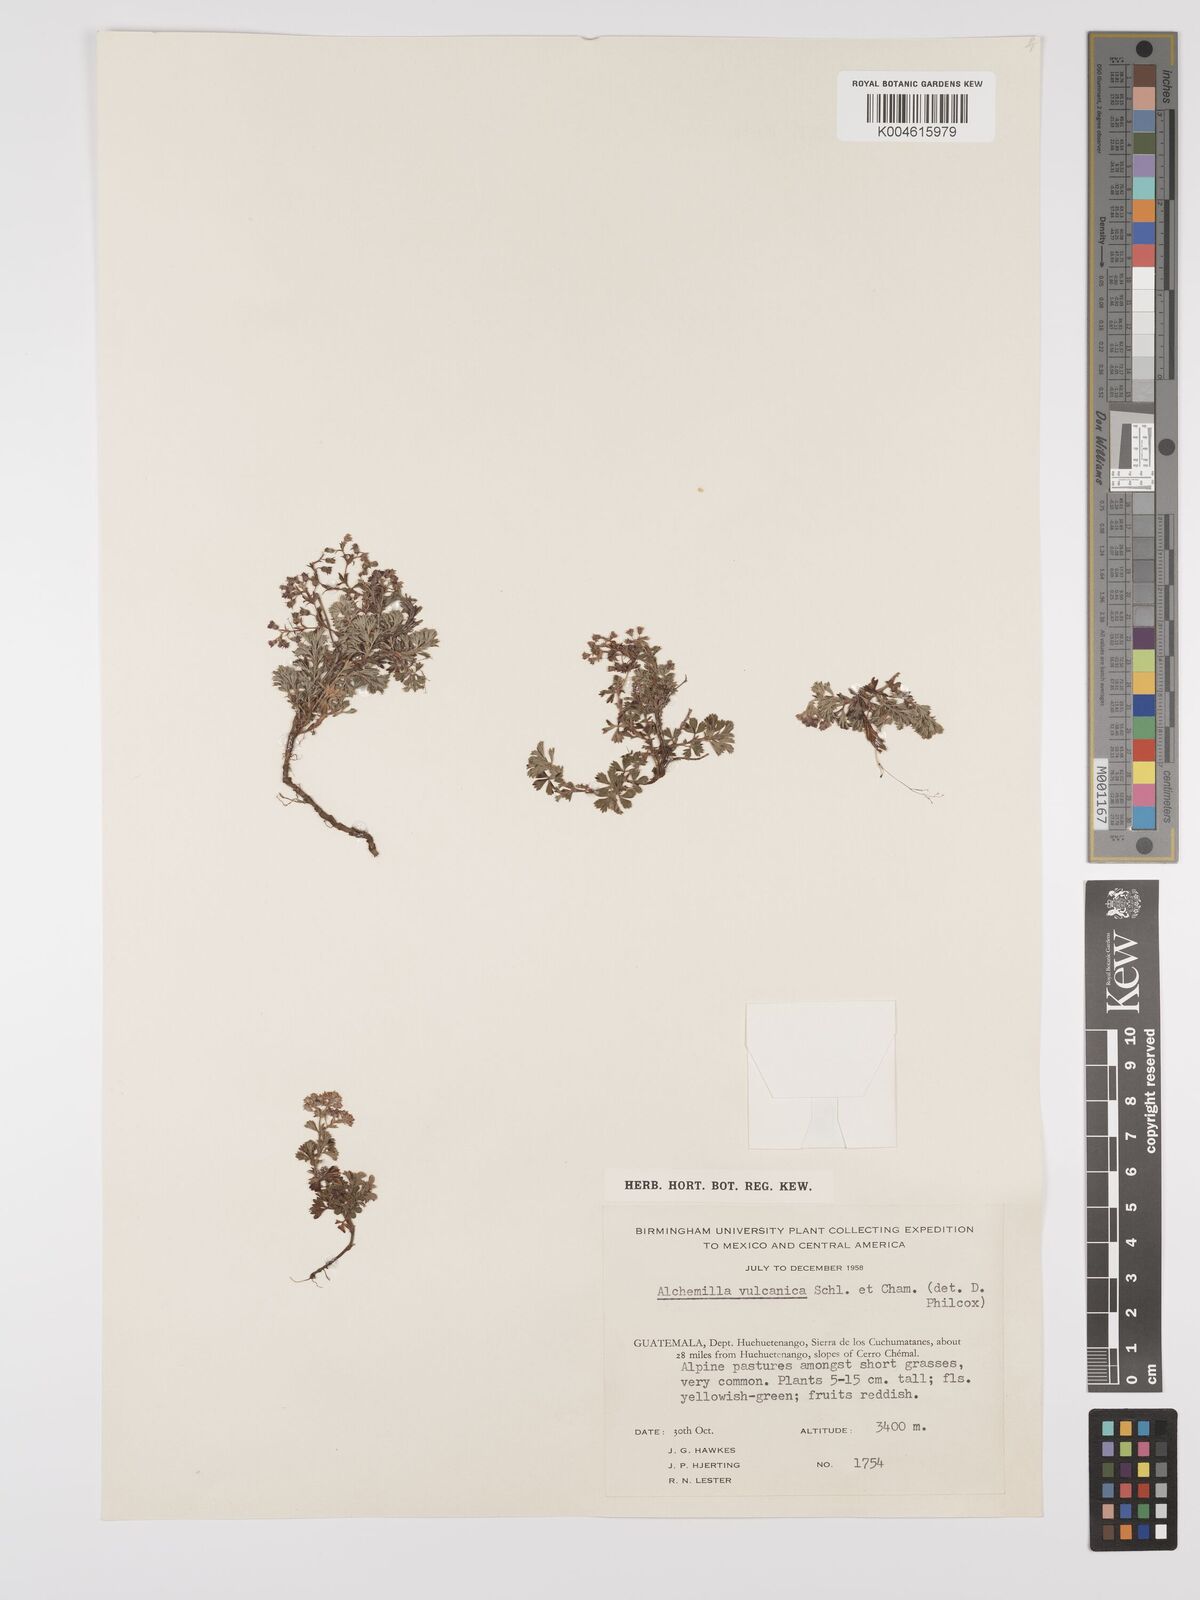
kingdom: Plantae
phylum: Tracheophyta
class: Magnoliopsida
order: Rosales
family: Rosaceae
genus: Alchemilla
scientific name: Alchemilla
